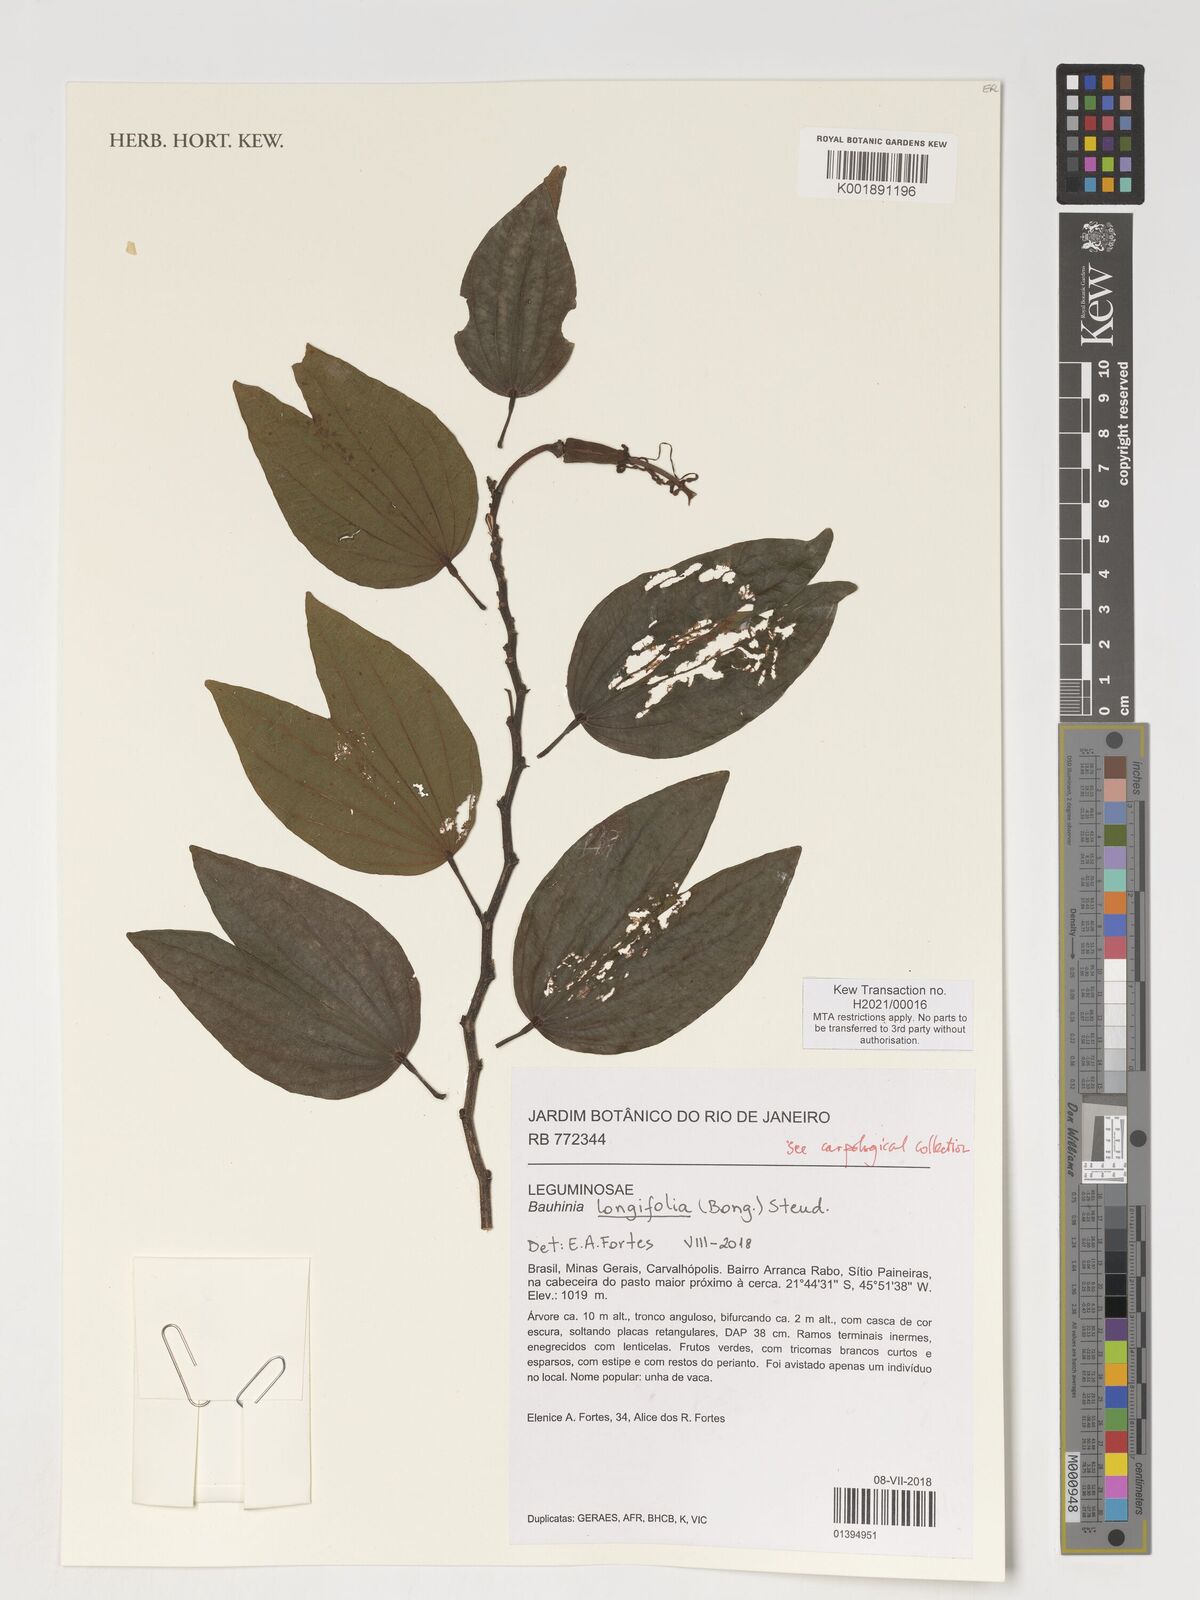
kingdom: Plantae
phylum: Tracheophyta
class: Magnoliopsida
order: Fabales
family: Fabaceae
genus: Bauhinia
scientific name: Bauhinia longifolia
